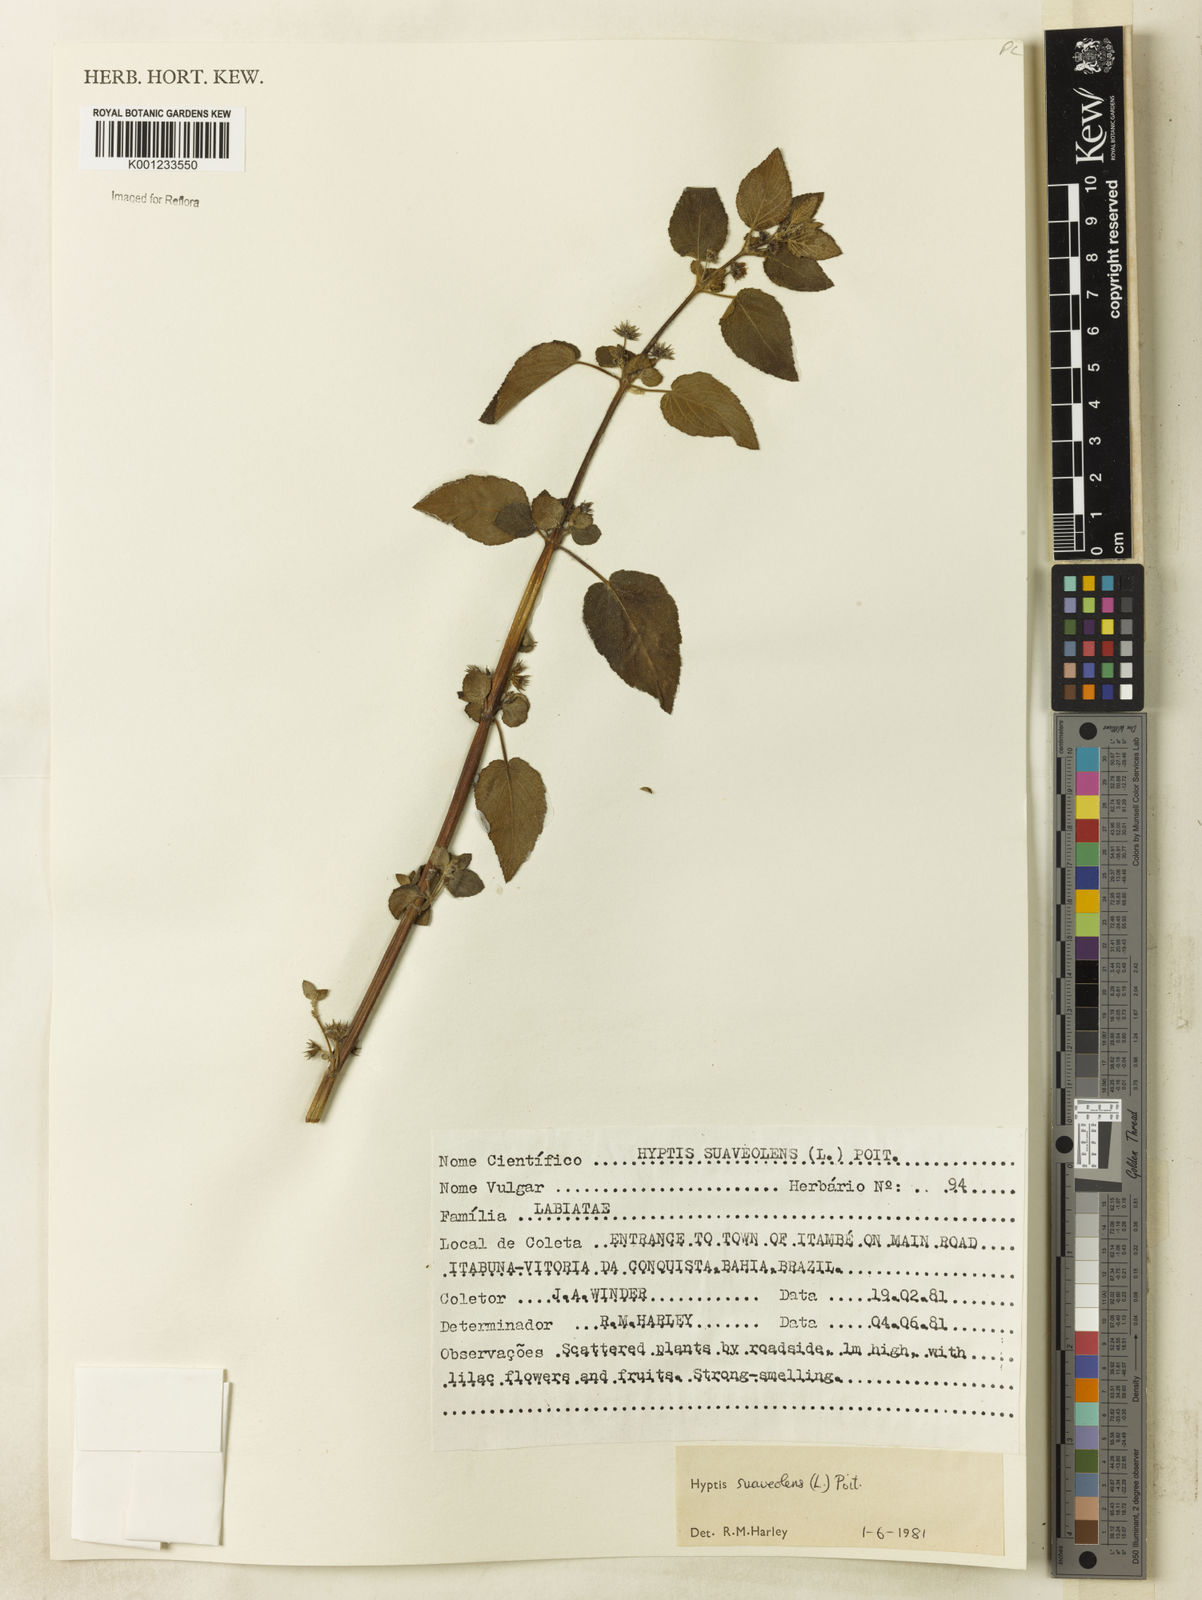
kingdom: Plantae
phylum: Tracheophyta
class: Magnoliopsida
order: Lamiales
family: Lamiaceae
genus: Mesosphaerum
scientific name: Mesosphaerum suaveolens
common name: Pignut
